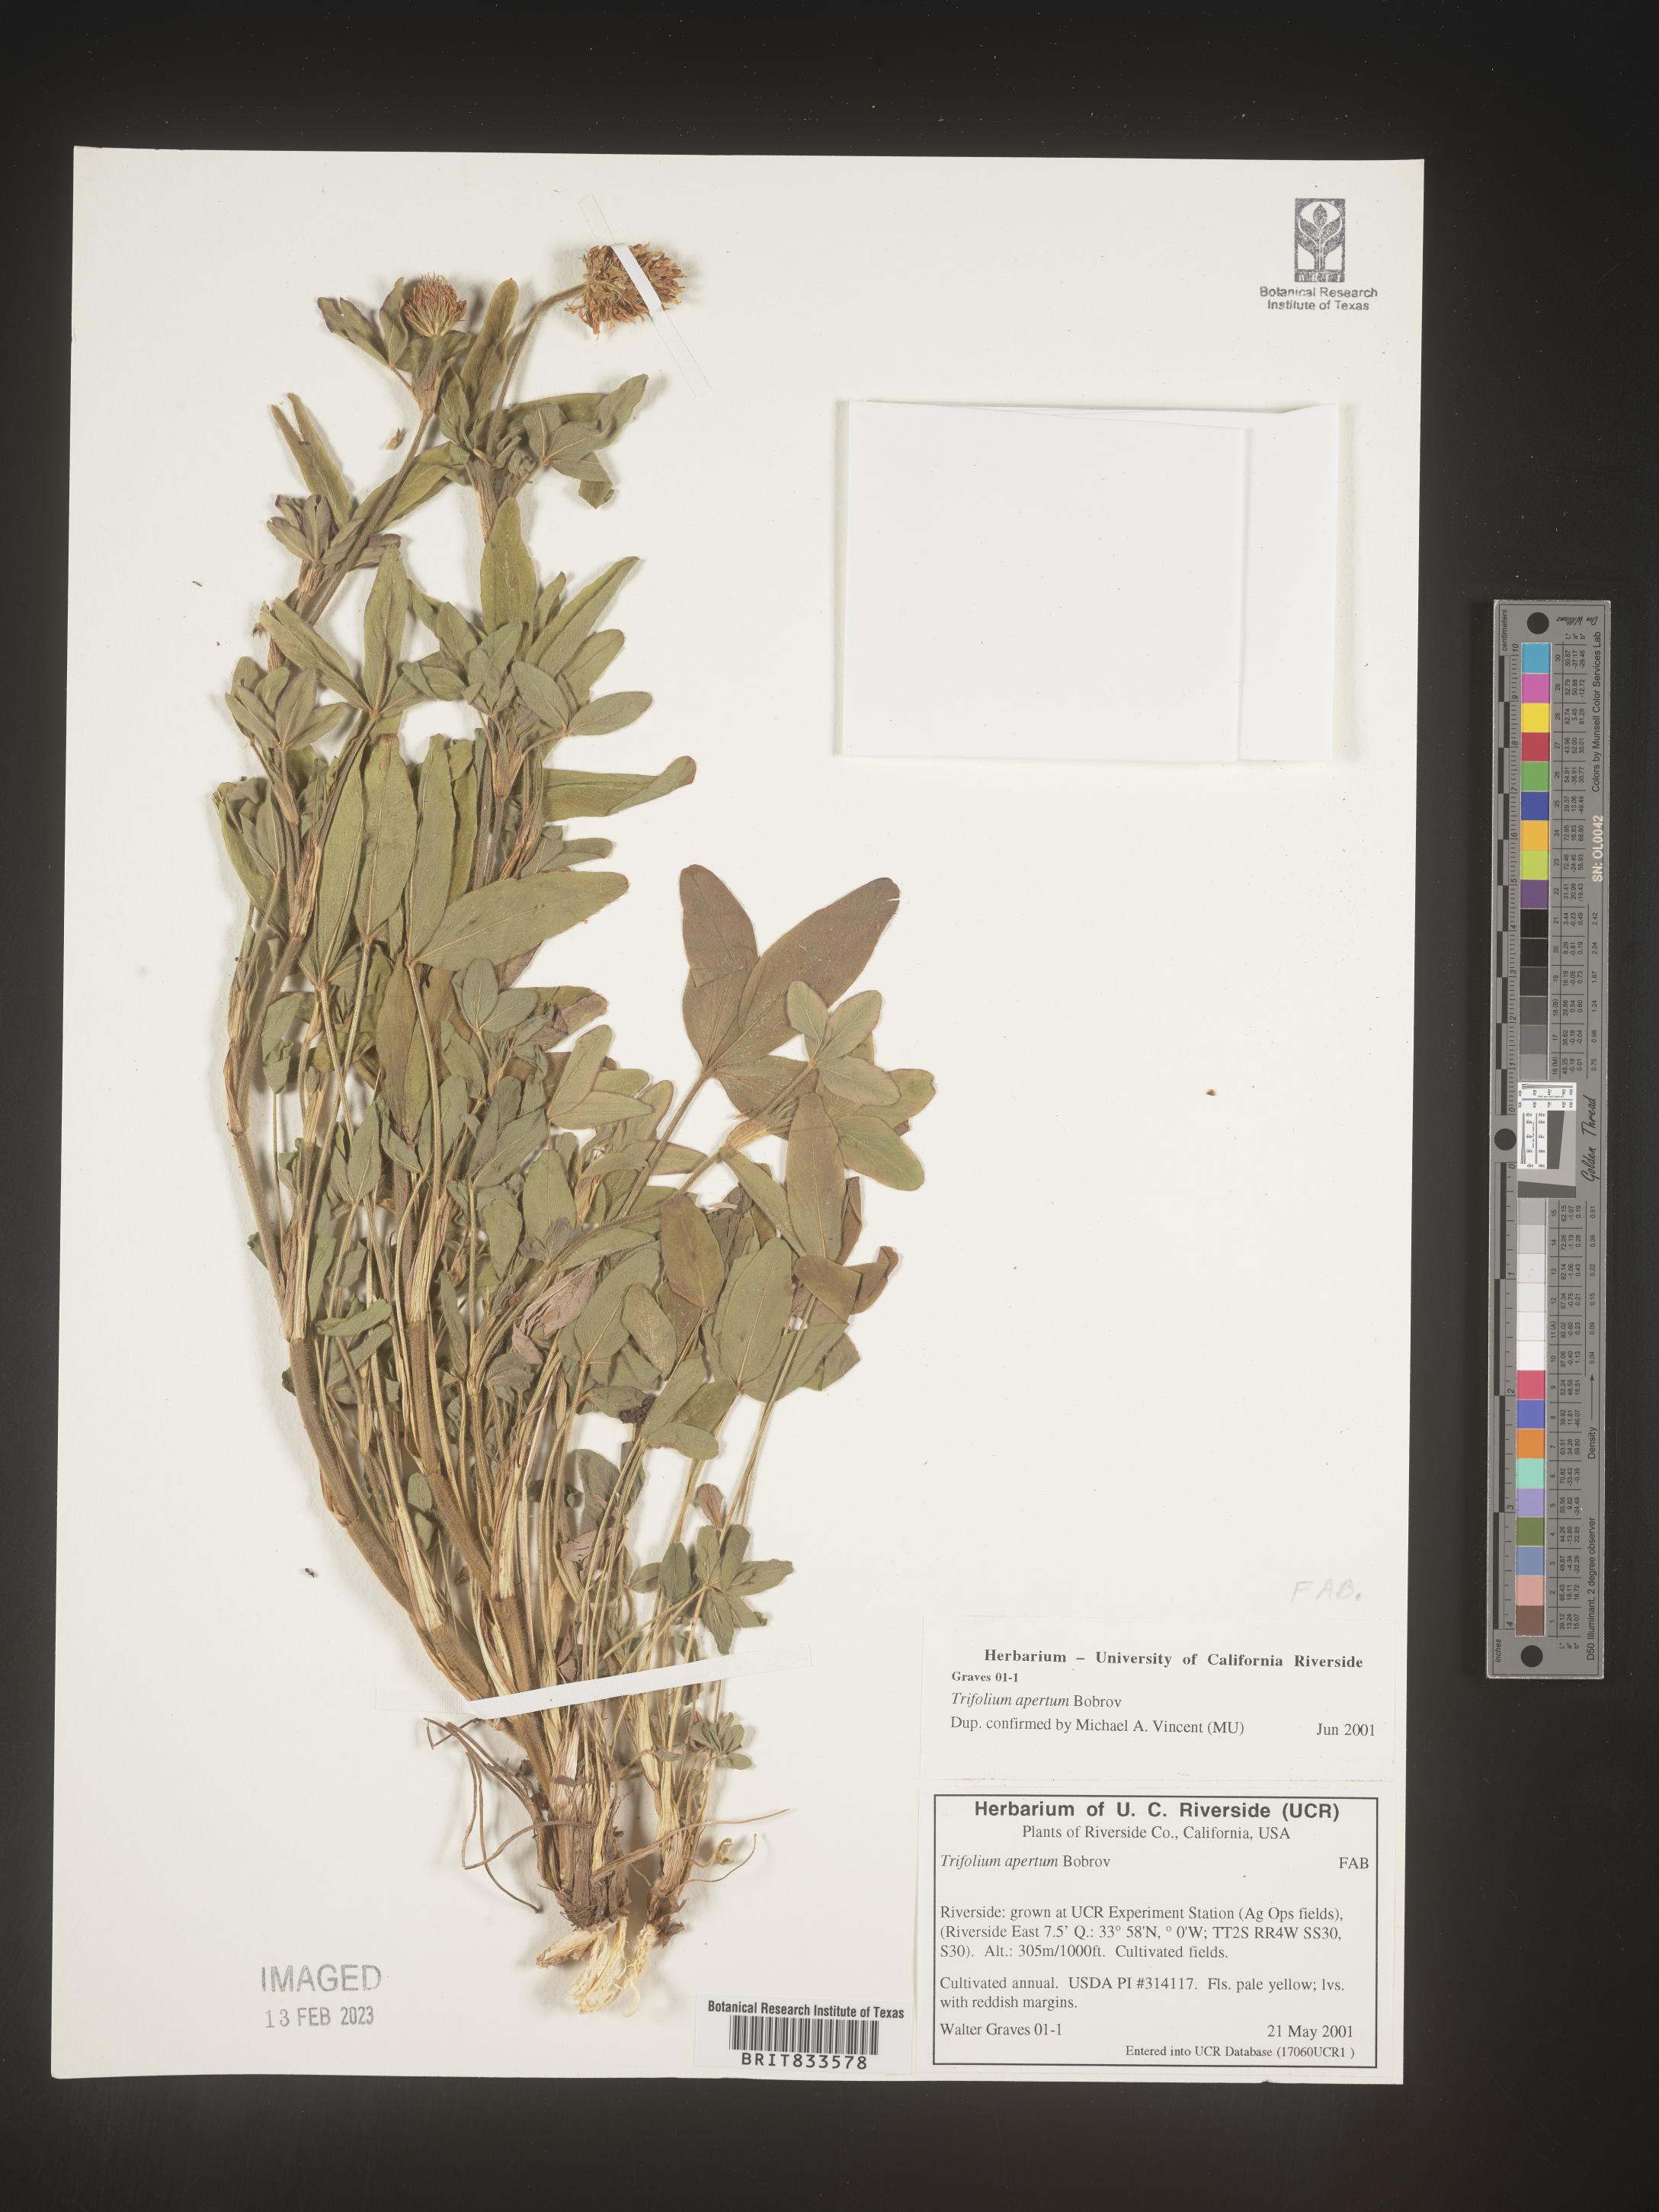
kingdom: Plantae
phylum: Tracheophyta
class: Magnoliopsida
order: Fabales
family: Fabaceae
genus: Trifolium
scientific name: Trifolium
